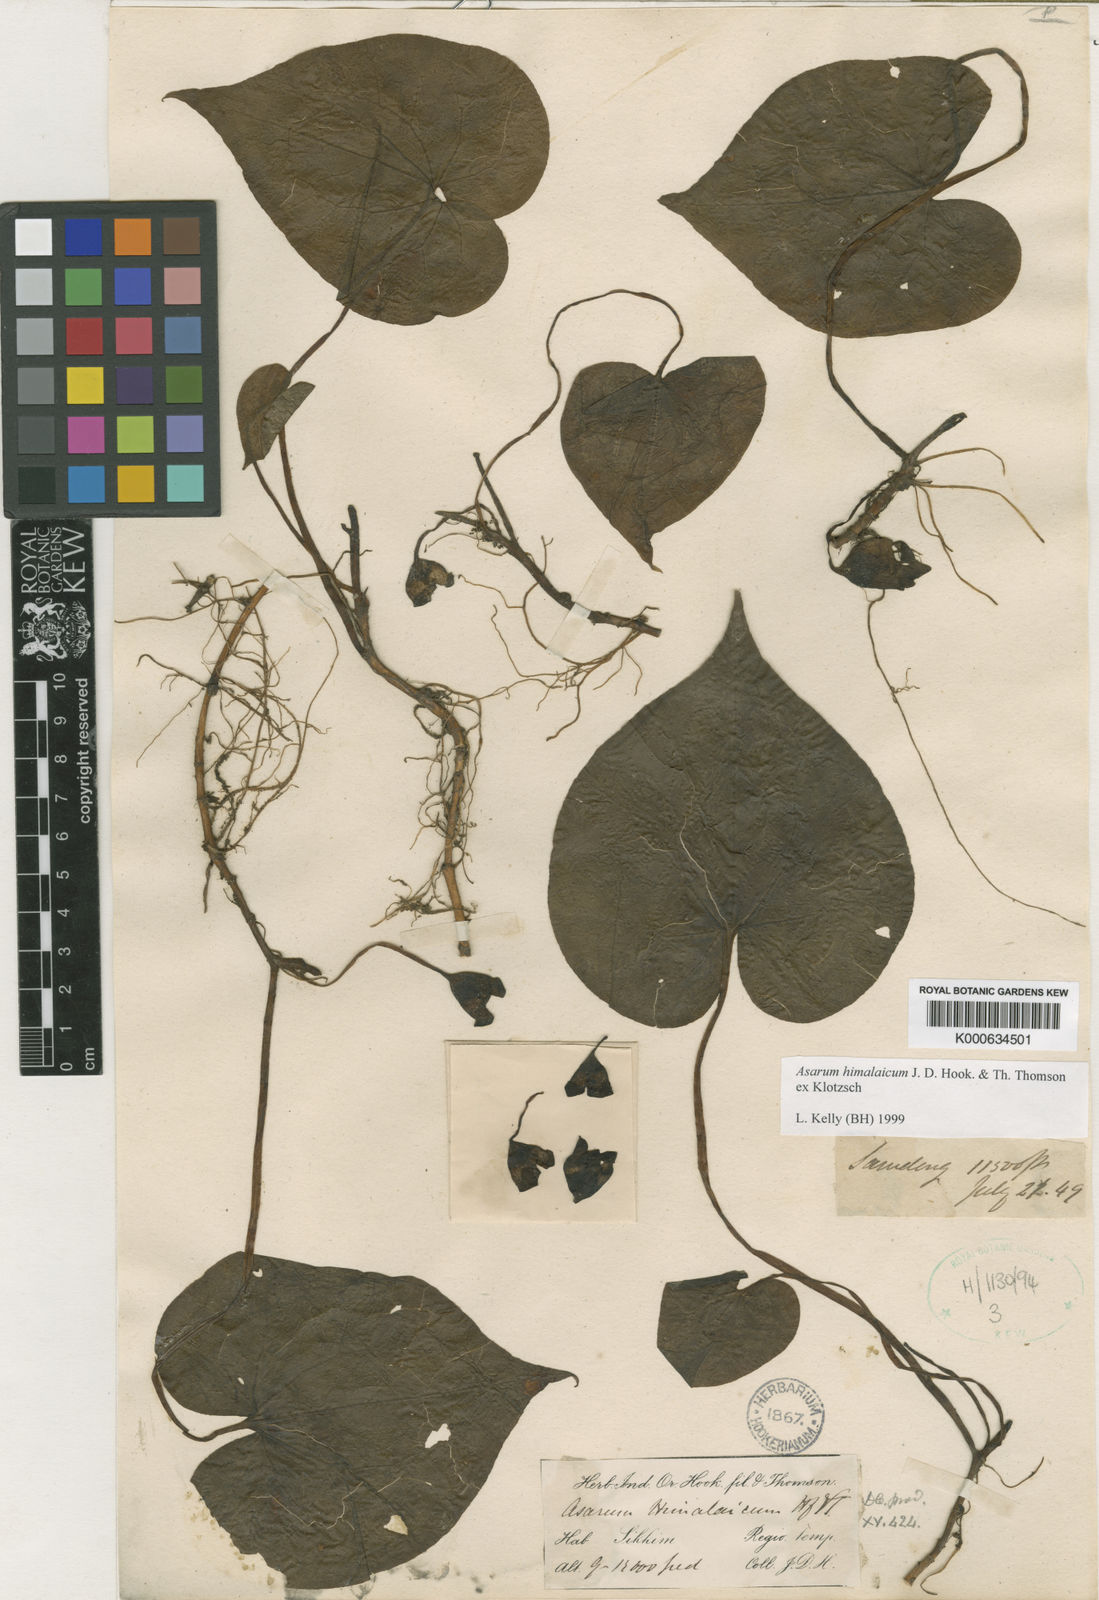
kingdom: Plantae
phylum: Tracheophyta
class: Magnoliopsida
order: Piperales
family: Aristolochiaceae
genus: Asarum
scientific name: Asarum himalaicum
